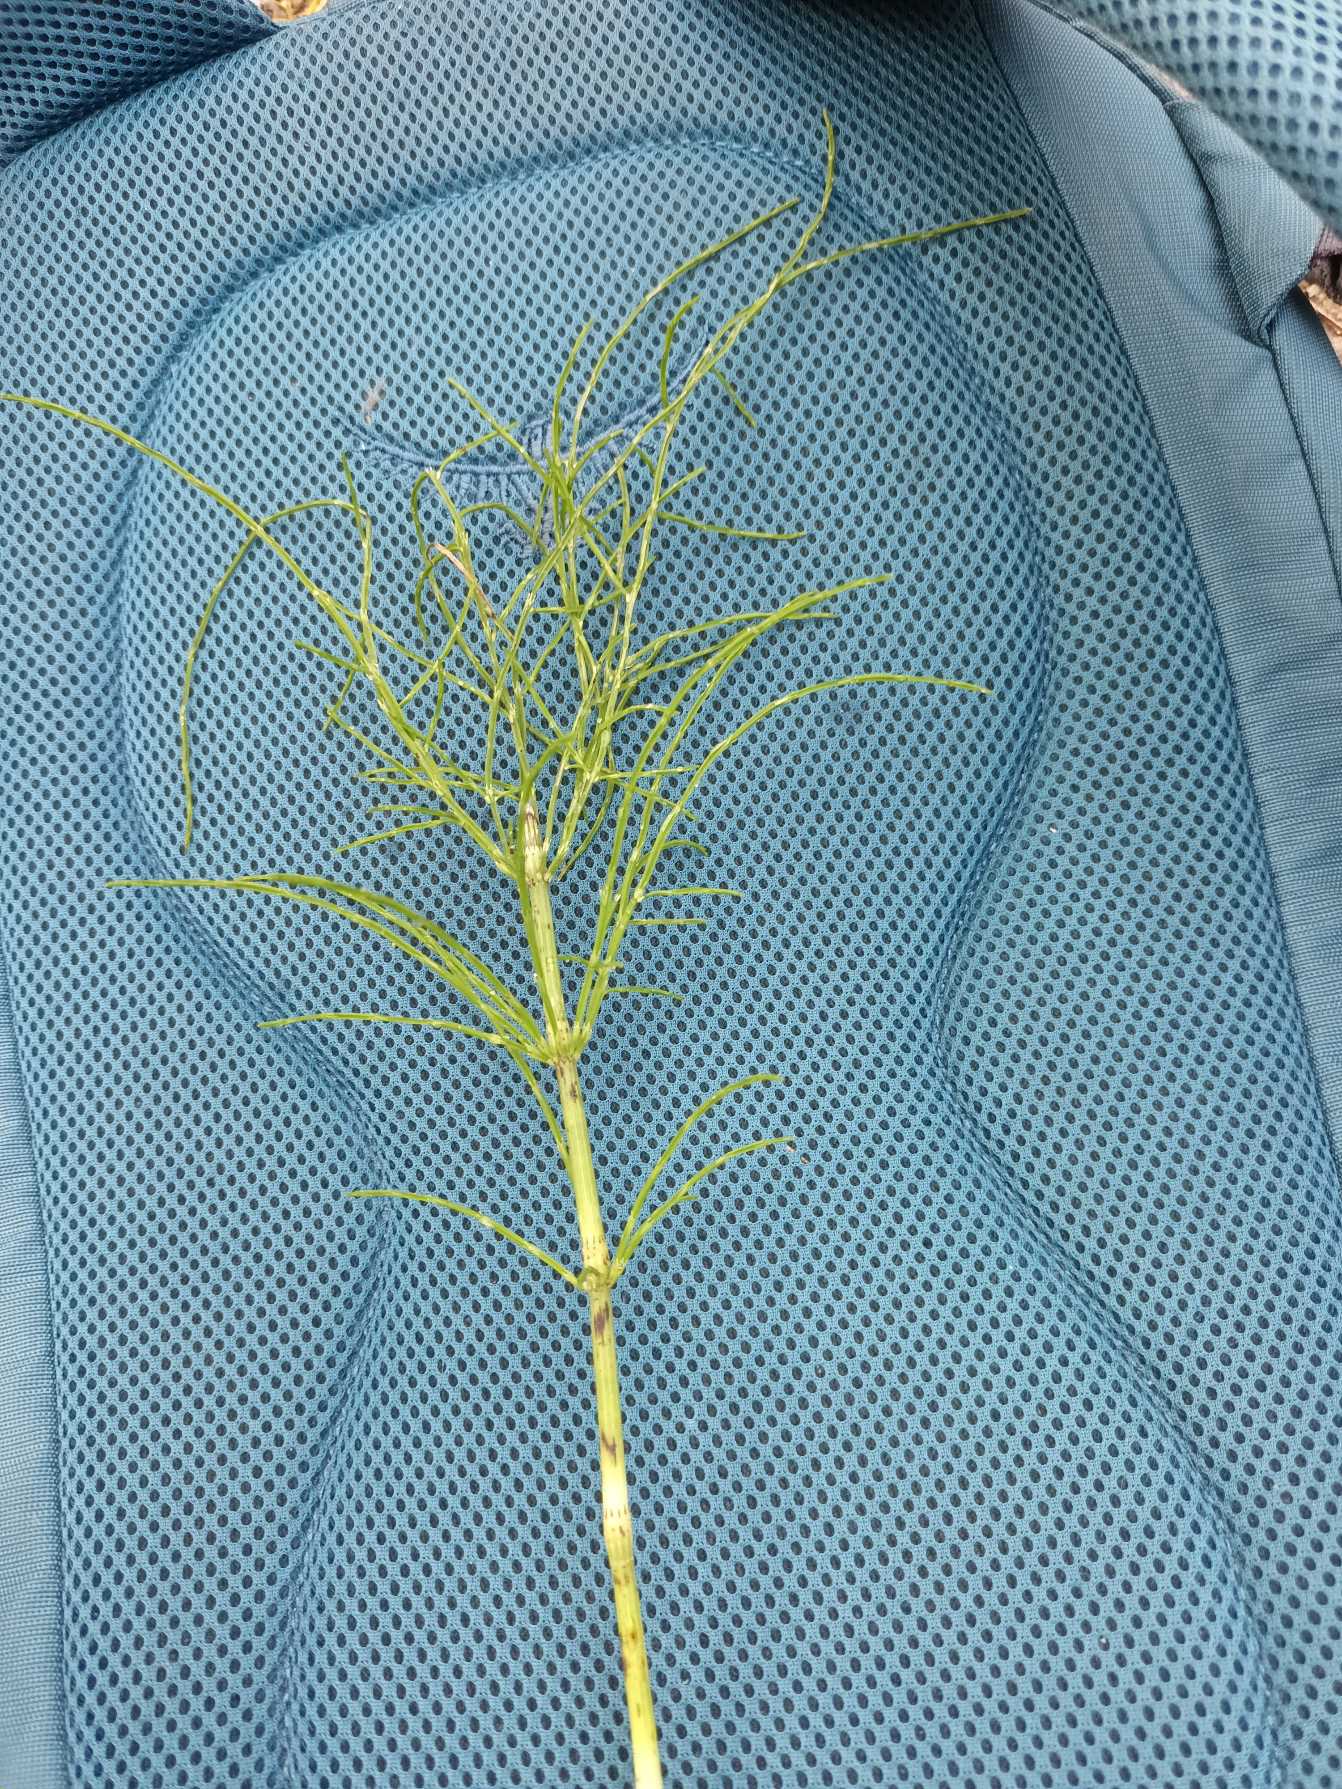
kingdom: Plantae
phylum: Tracheophyta
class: Polypodiopsida
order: Equisetales
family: Equisetaceae
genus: Equisetum
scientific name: Equisetum arvense
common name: Ager-padderok
